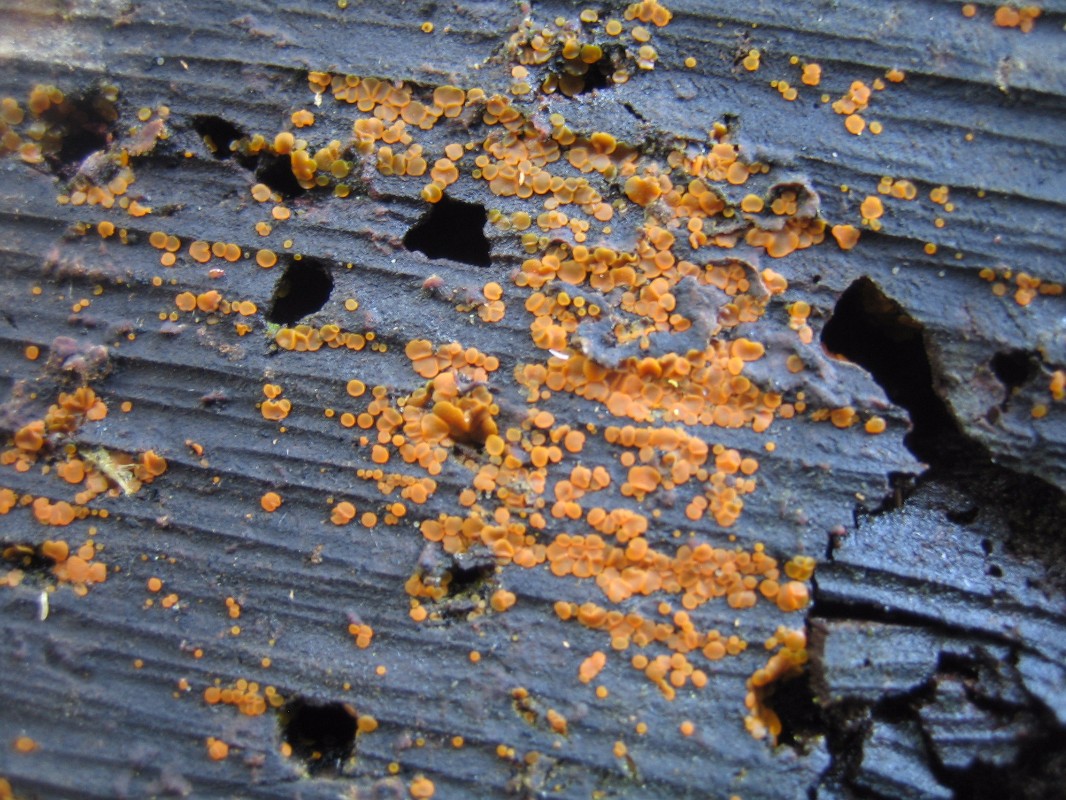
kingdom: Fungi
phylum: Ascomycota
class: Orbiliomycetes
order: Orbiliales
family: Orbiliaceae
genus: Orbilia
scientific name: Orbilia xanthostigma
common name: krumsporet voksskive
